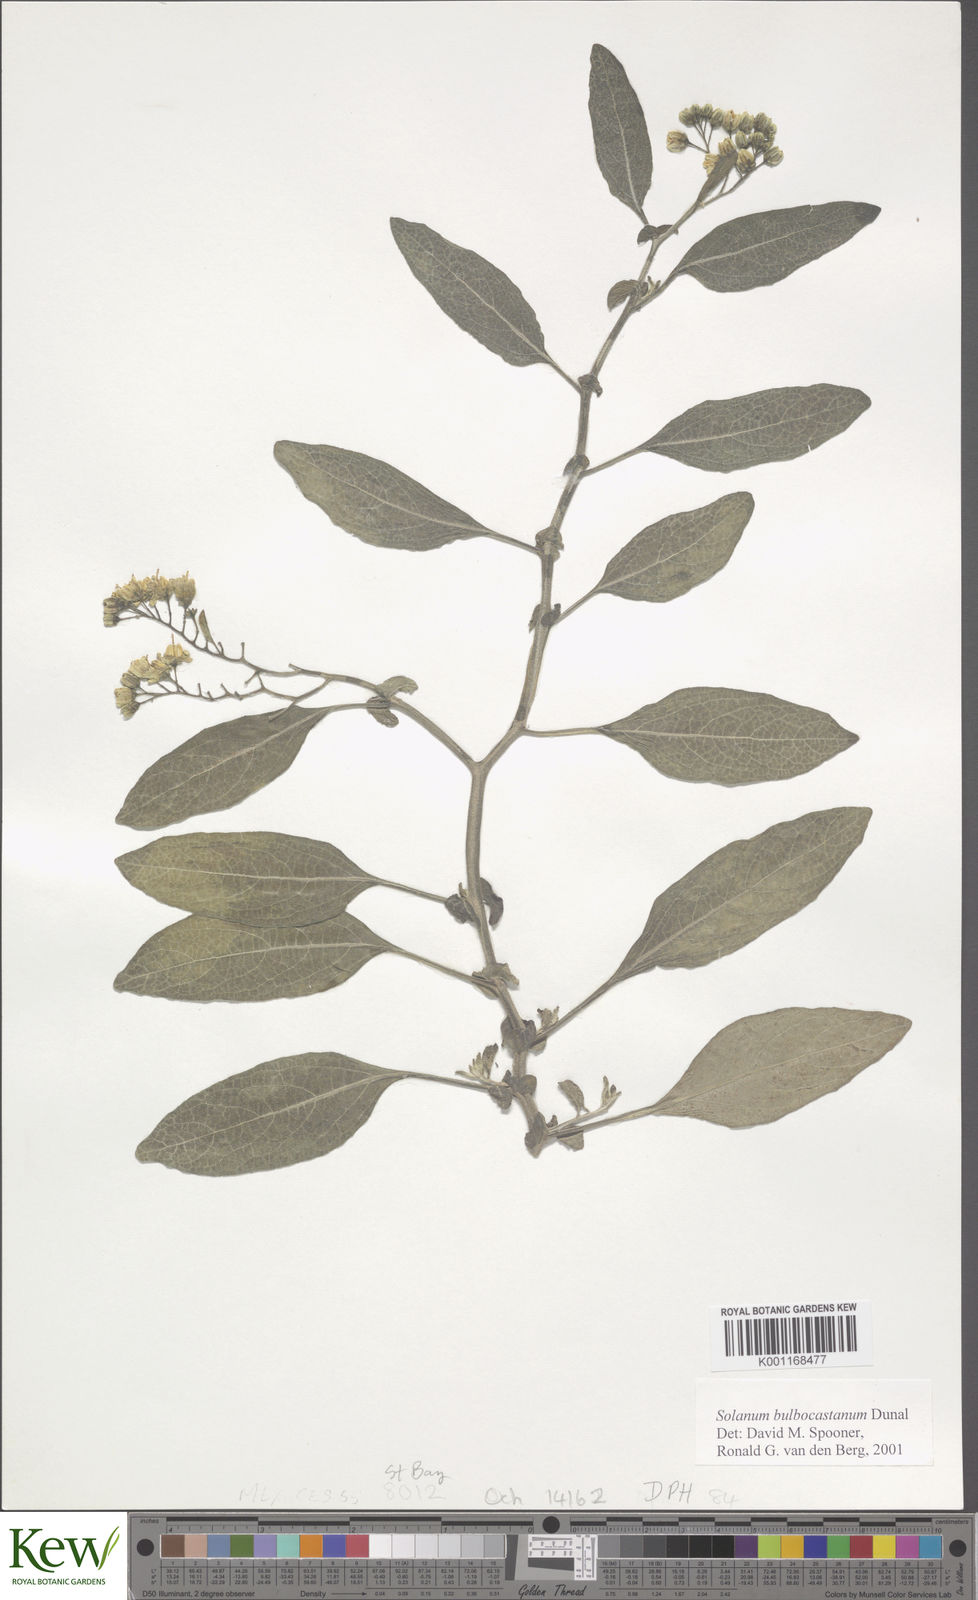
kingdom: Plantae
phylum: Tracheophyta
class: Magnoliopsida
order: Solanales
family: Solanaceae
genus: Solanum
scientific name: Solanum bulbocastanum
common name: Ornamental nightshade
